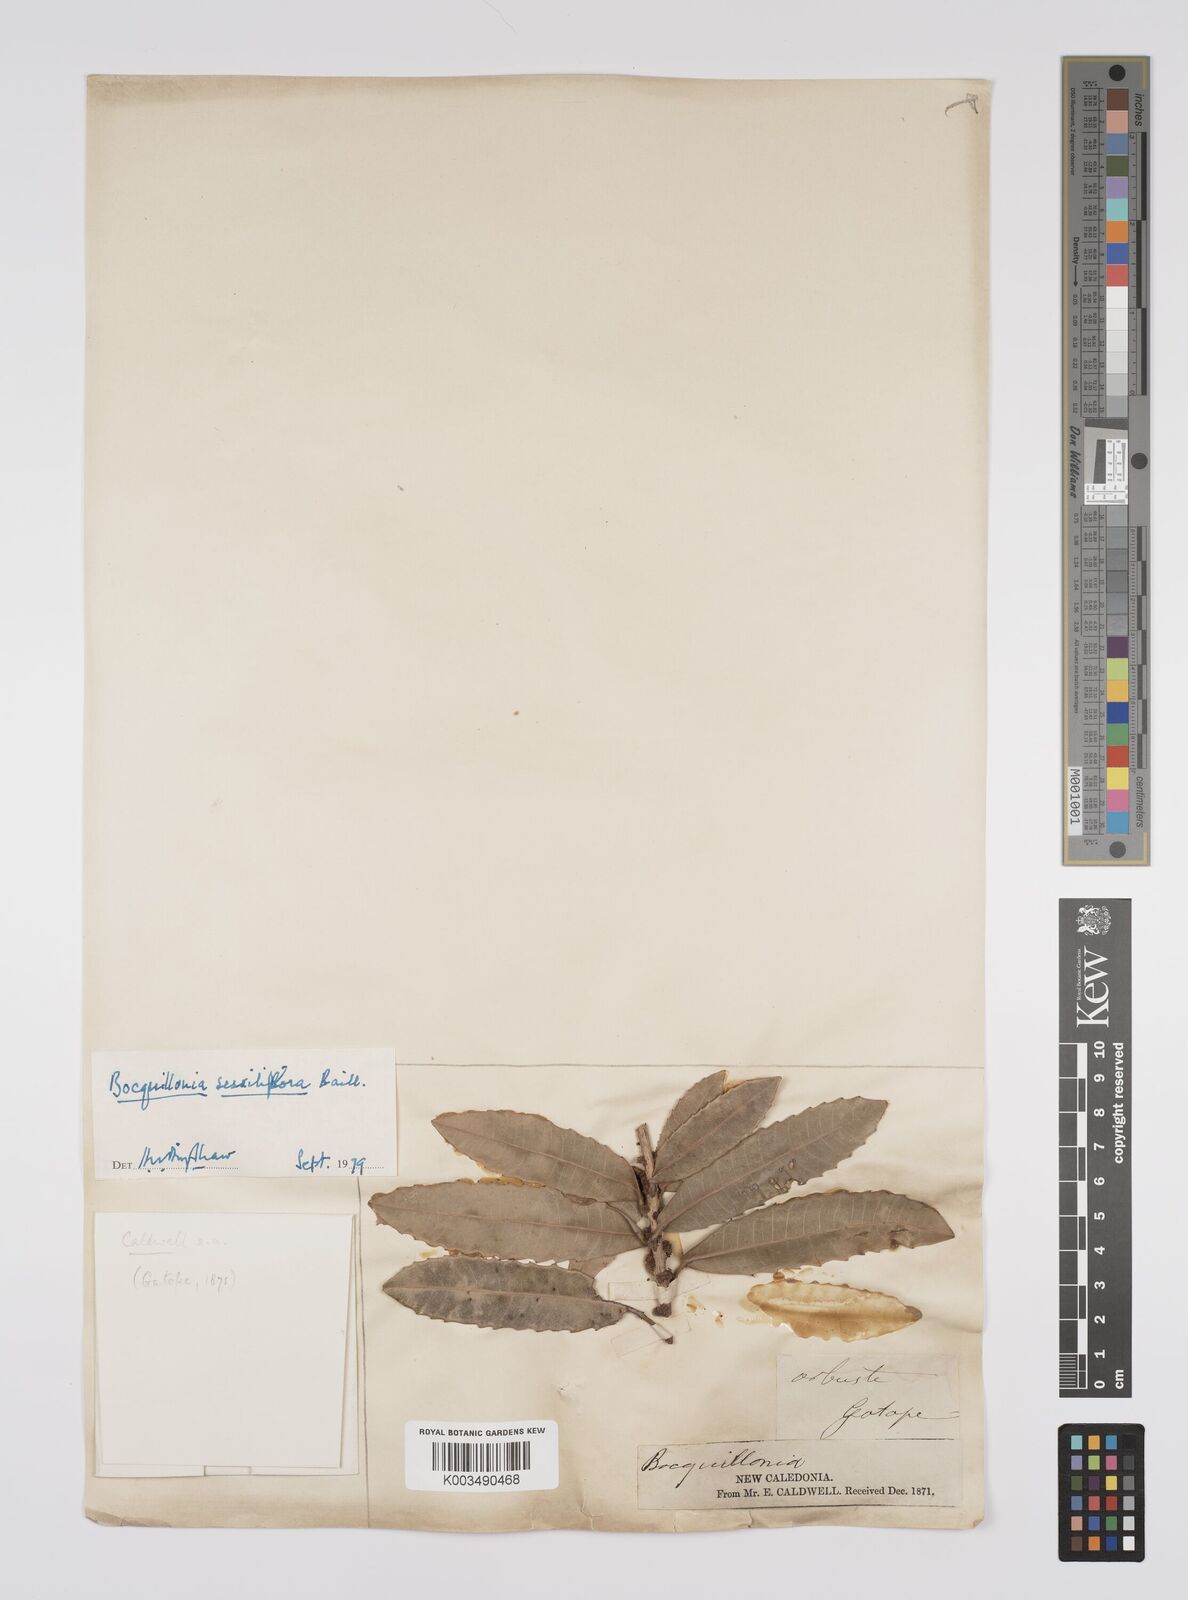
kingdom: Plantae
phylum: Tracheophyta
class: Magnoliopsida
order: Malpighiales
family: Euphorbiaceae
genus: Bocquillonia
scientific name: Bocquillonia sessiliflora
